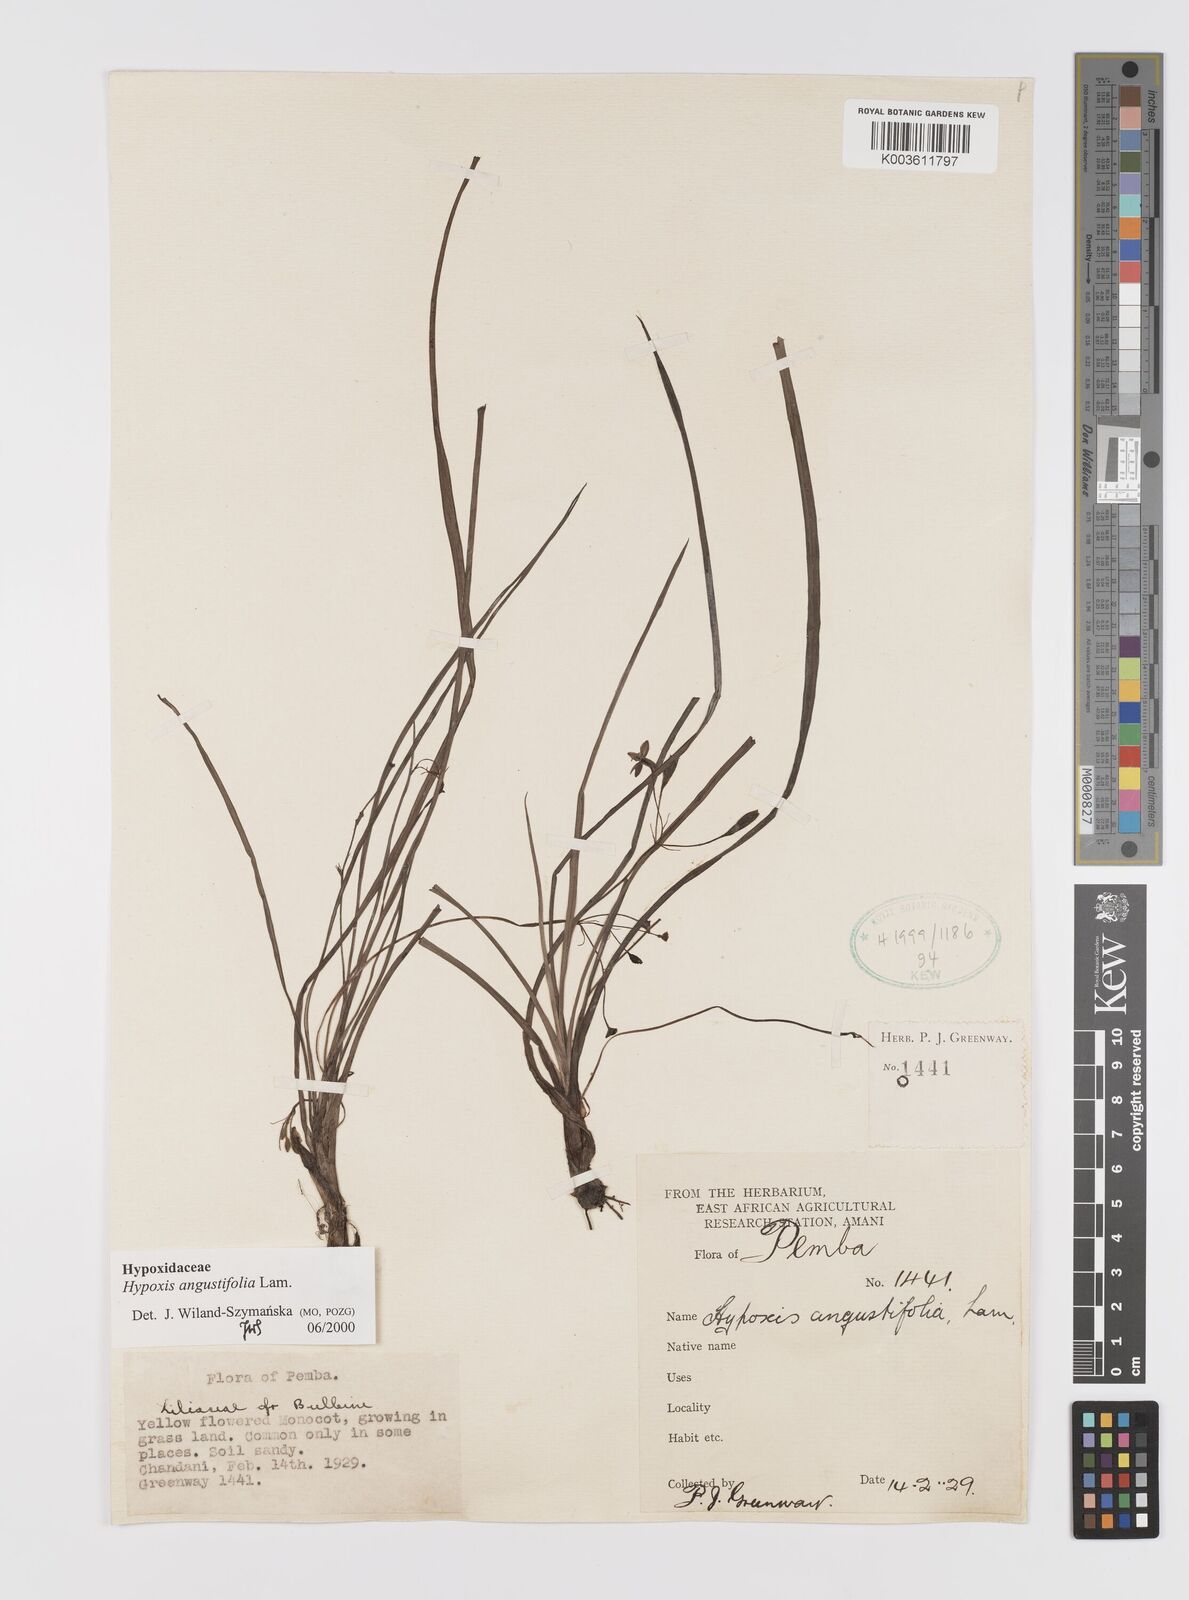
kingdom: Plantae
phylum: Tracheophyta
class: Liliopsida
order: Asparagales
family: Hypoxidaceae
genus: Hypoxis
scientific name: Hypoxis angustifolia
